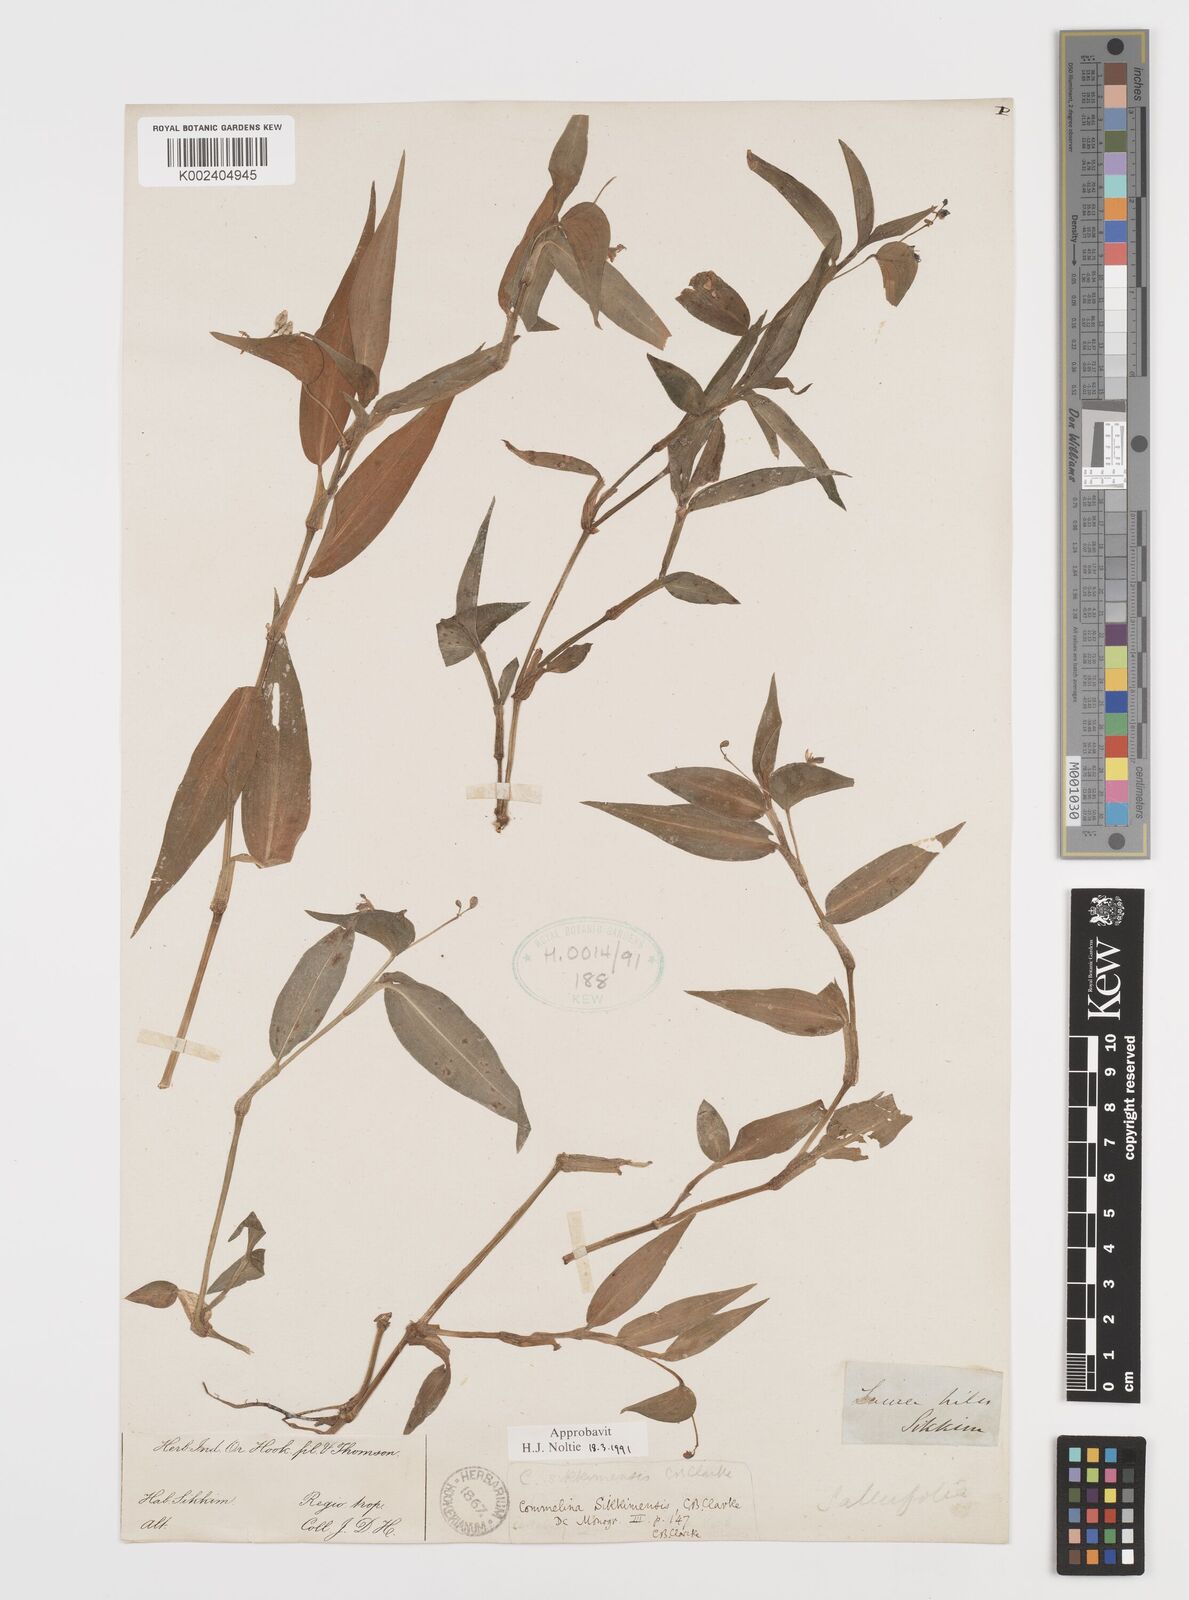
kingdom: Plantae
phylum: Tracheophyta
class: Liliopsida
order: Commelinales
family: Commelinaceae
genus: Commelina
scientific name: Commelina sikkimensis
